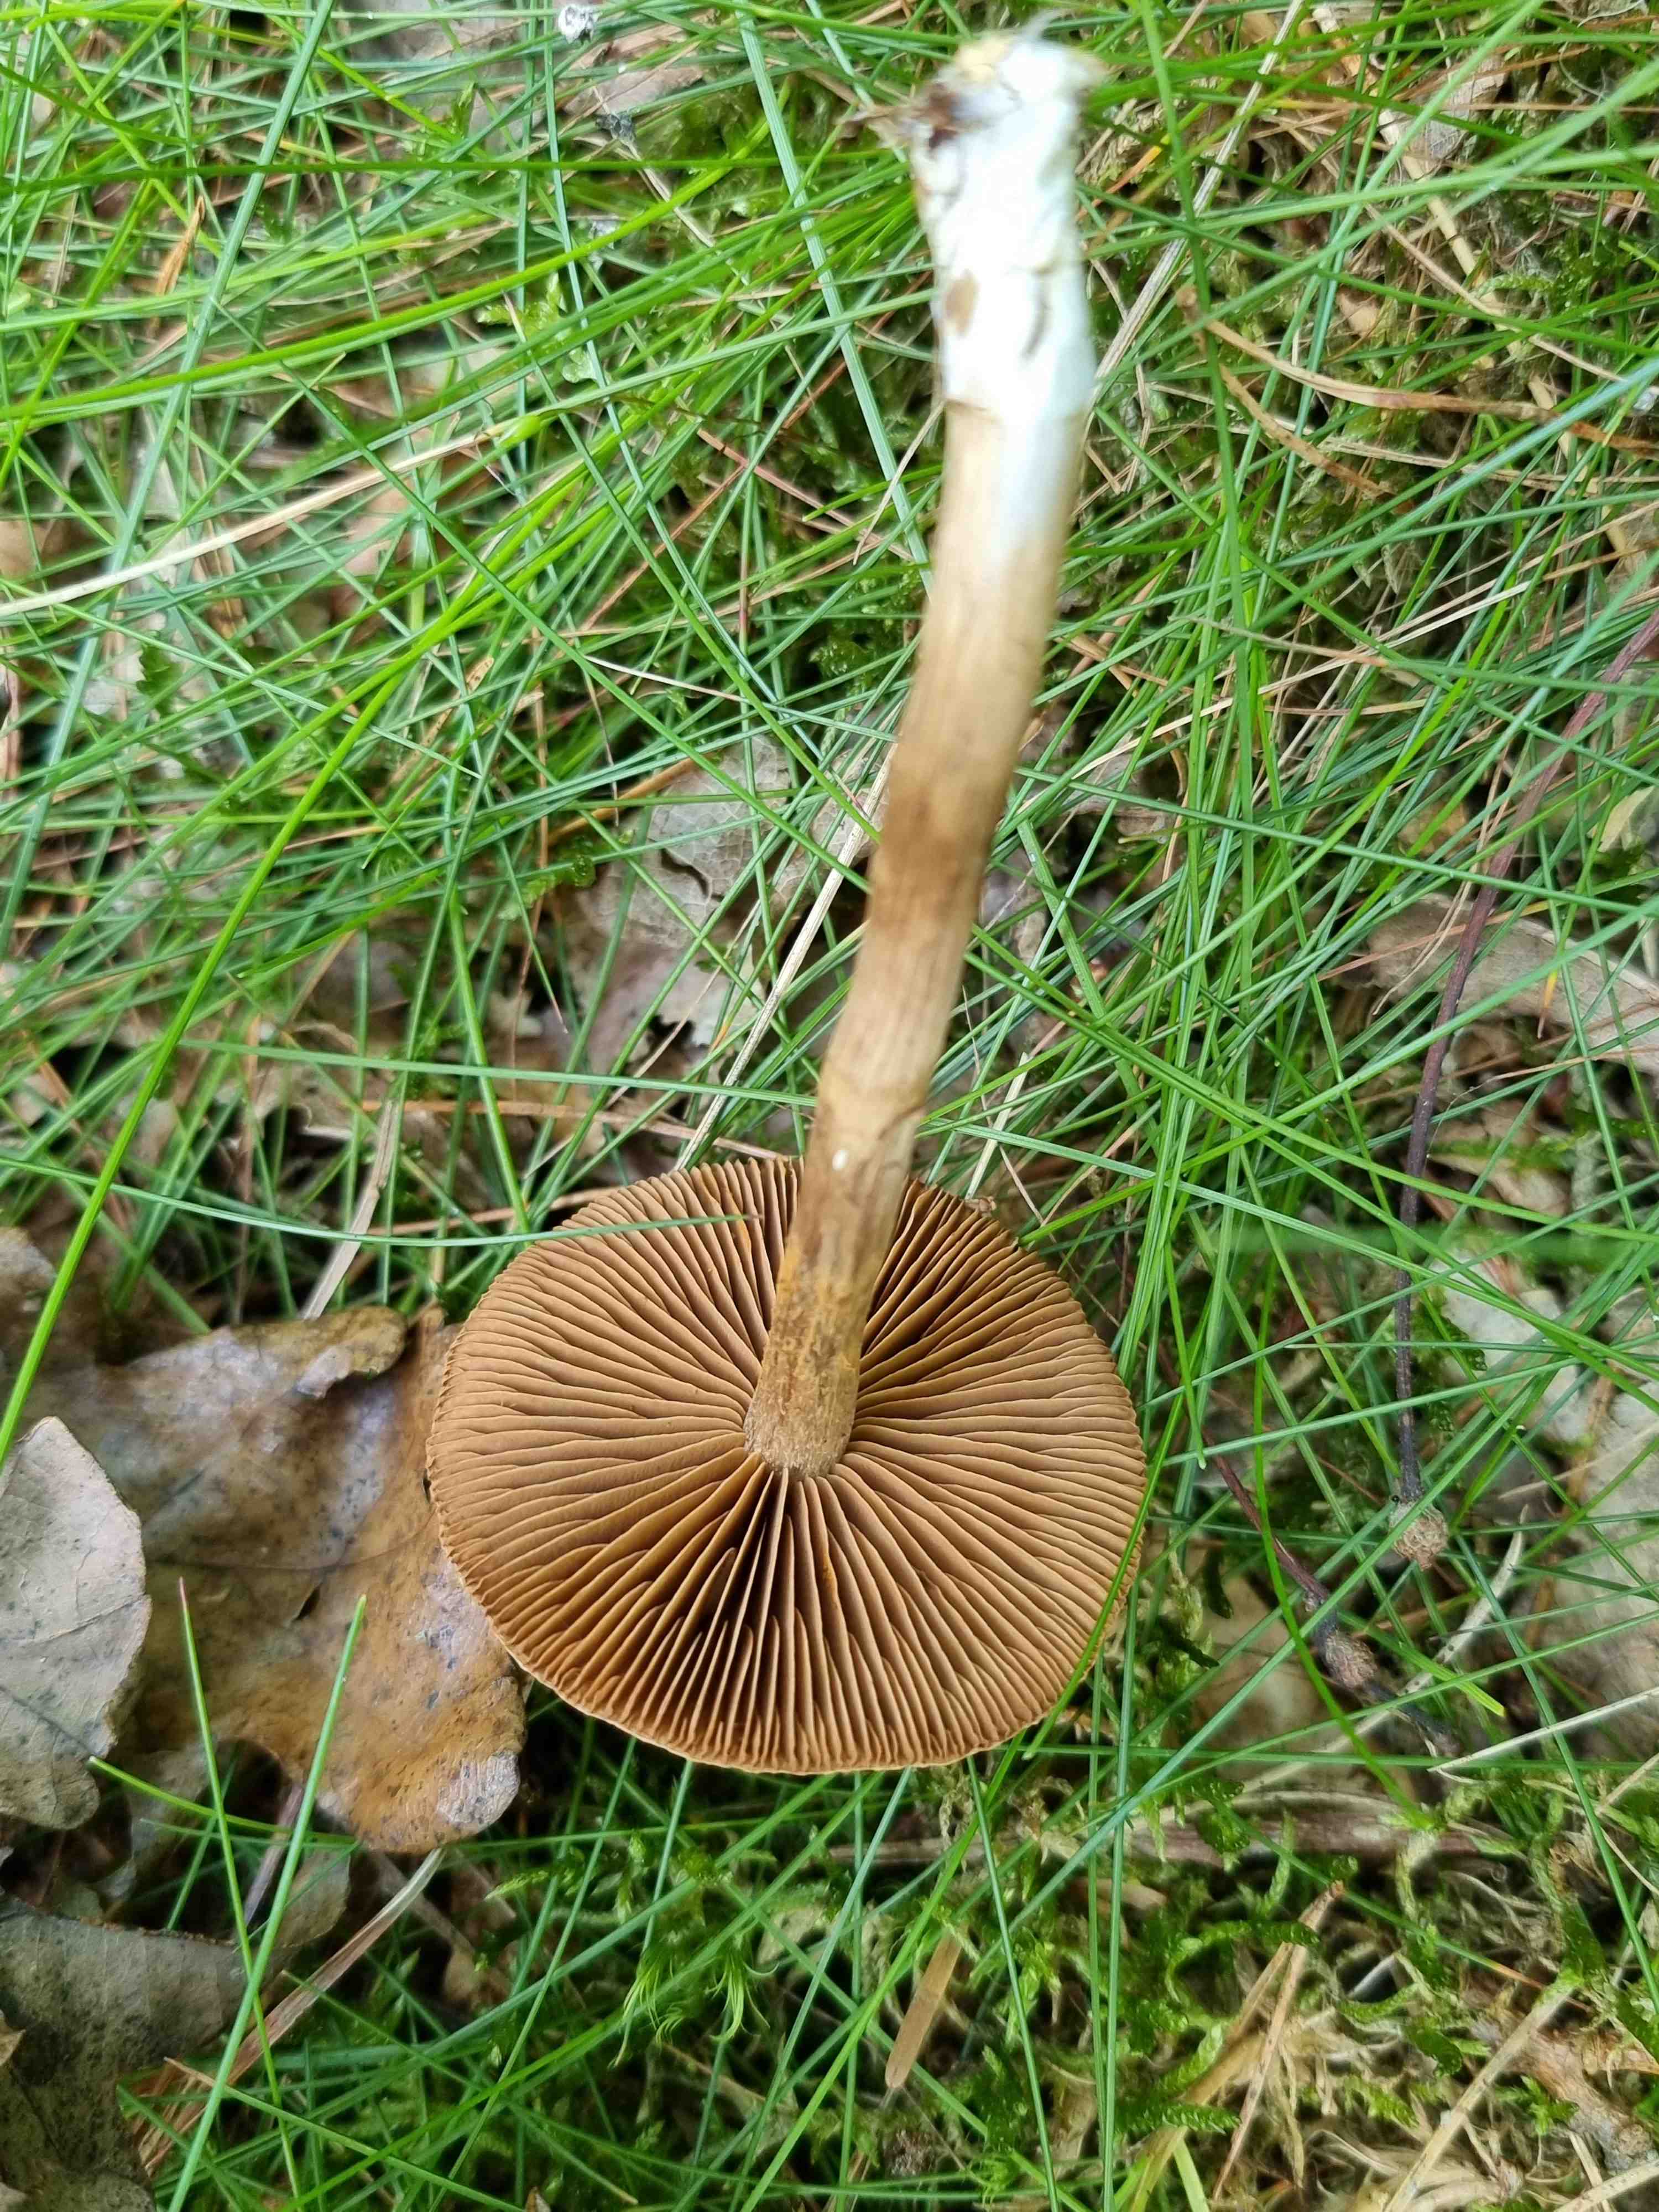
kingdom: Fungi
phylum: Basidiomycota
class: Agaricomycetes
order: Agaricales
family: Cortinariaceae
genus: Cortinarius
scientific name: Cortinarius
